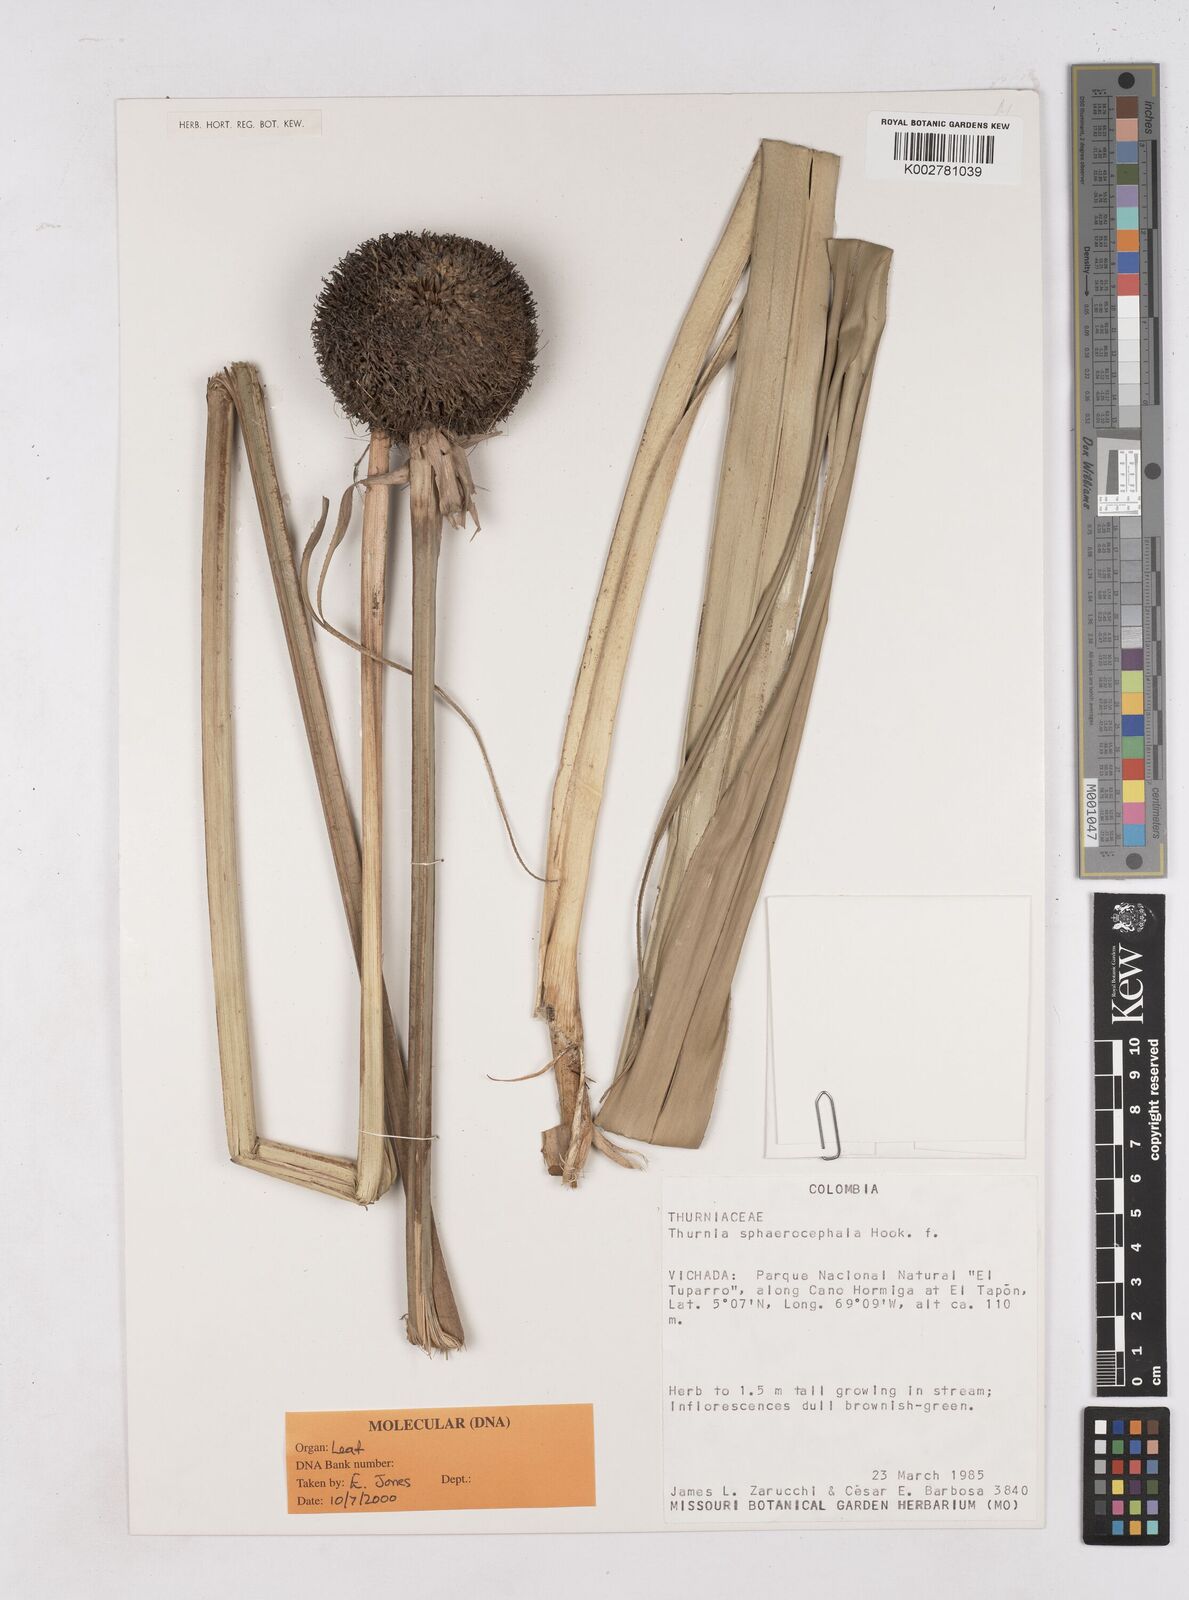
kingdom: Plantae
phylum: Tracheophyta
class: Liliopsida
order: Poales
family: Thurniaceae
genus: Thurnia
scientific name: Thurnia sphaerocephala
